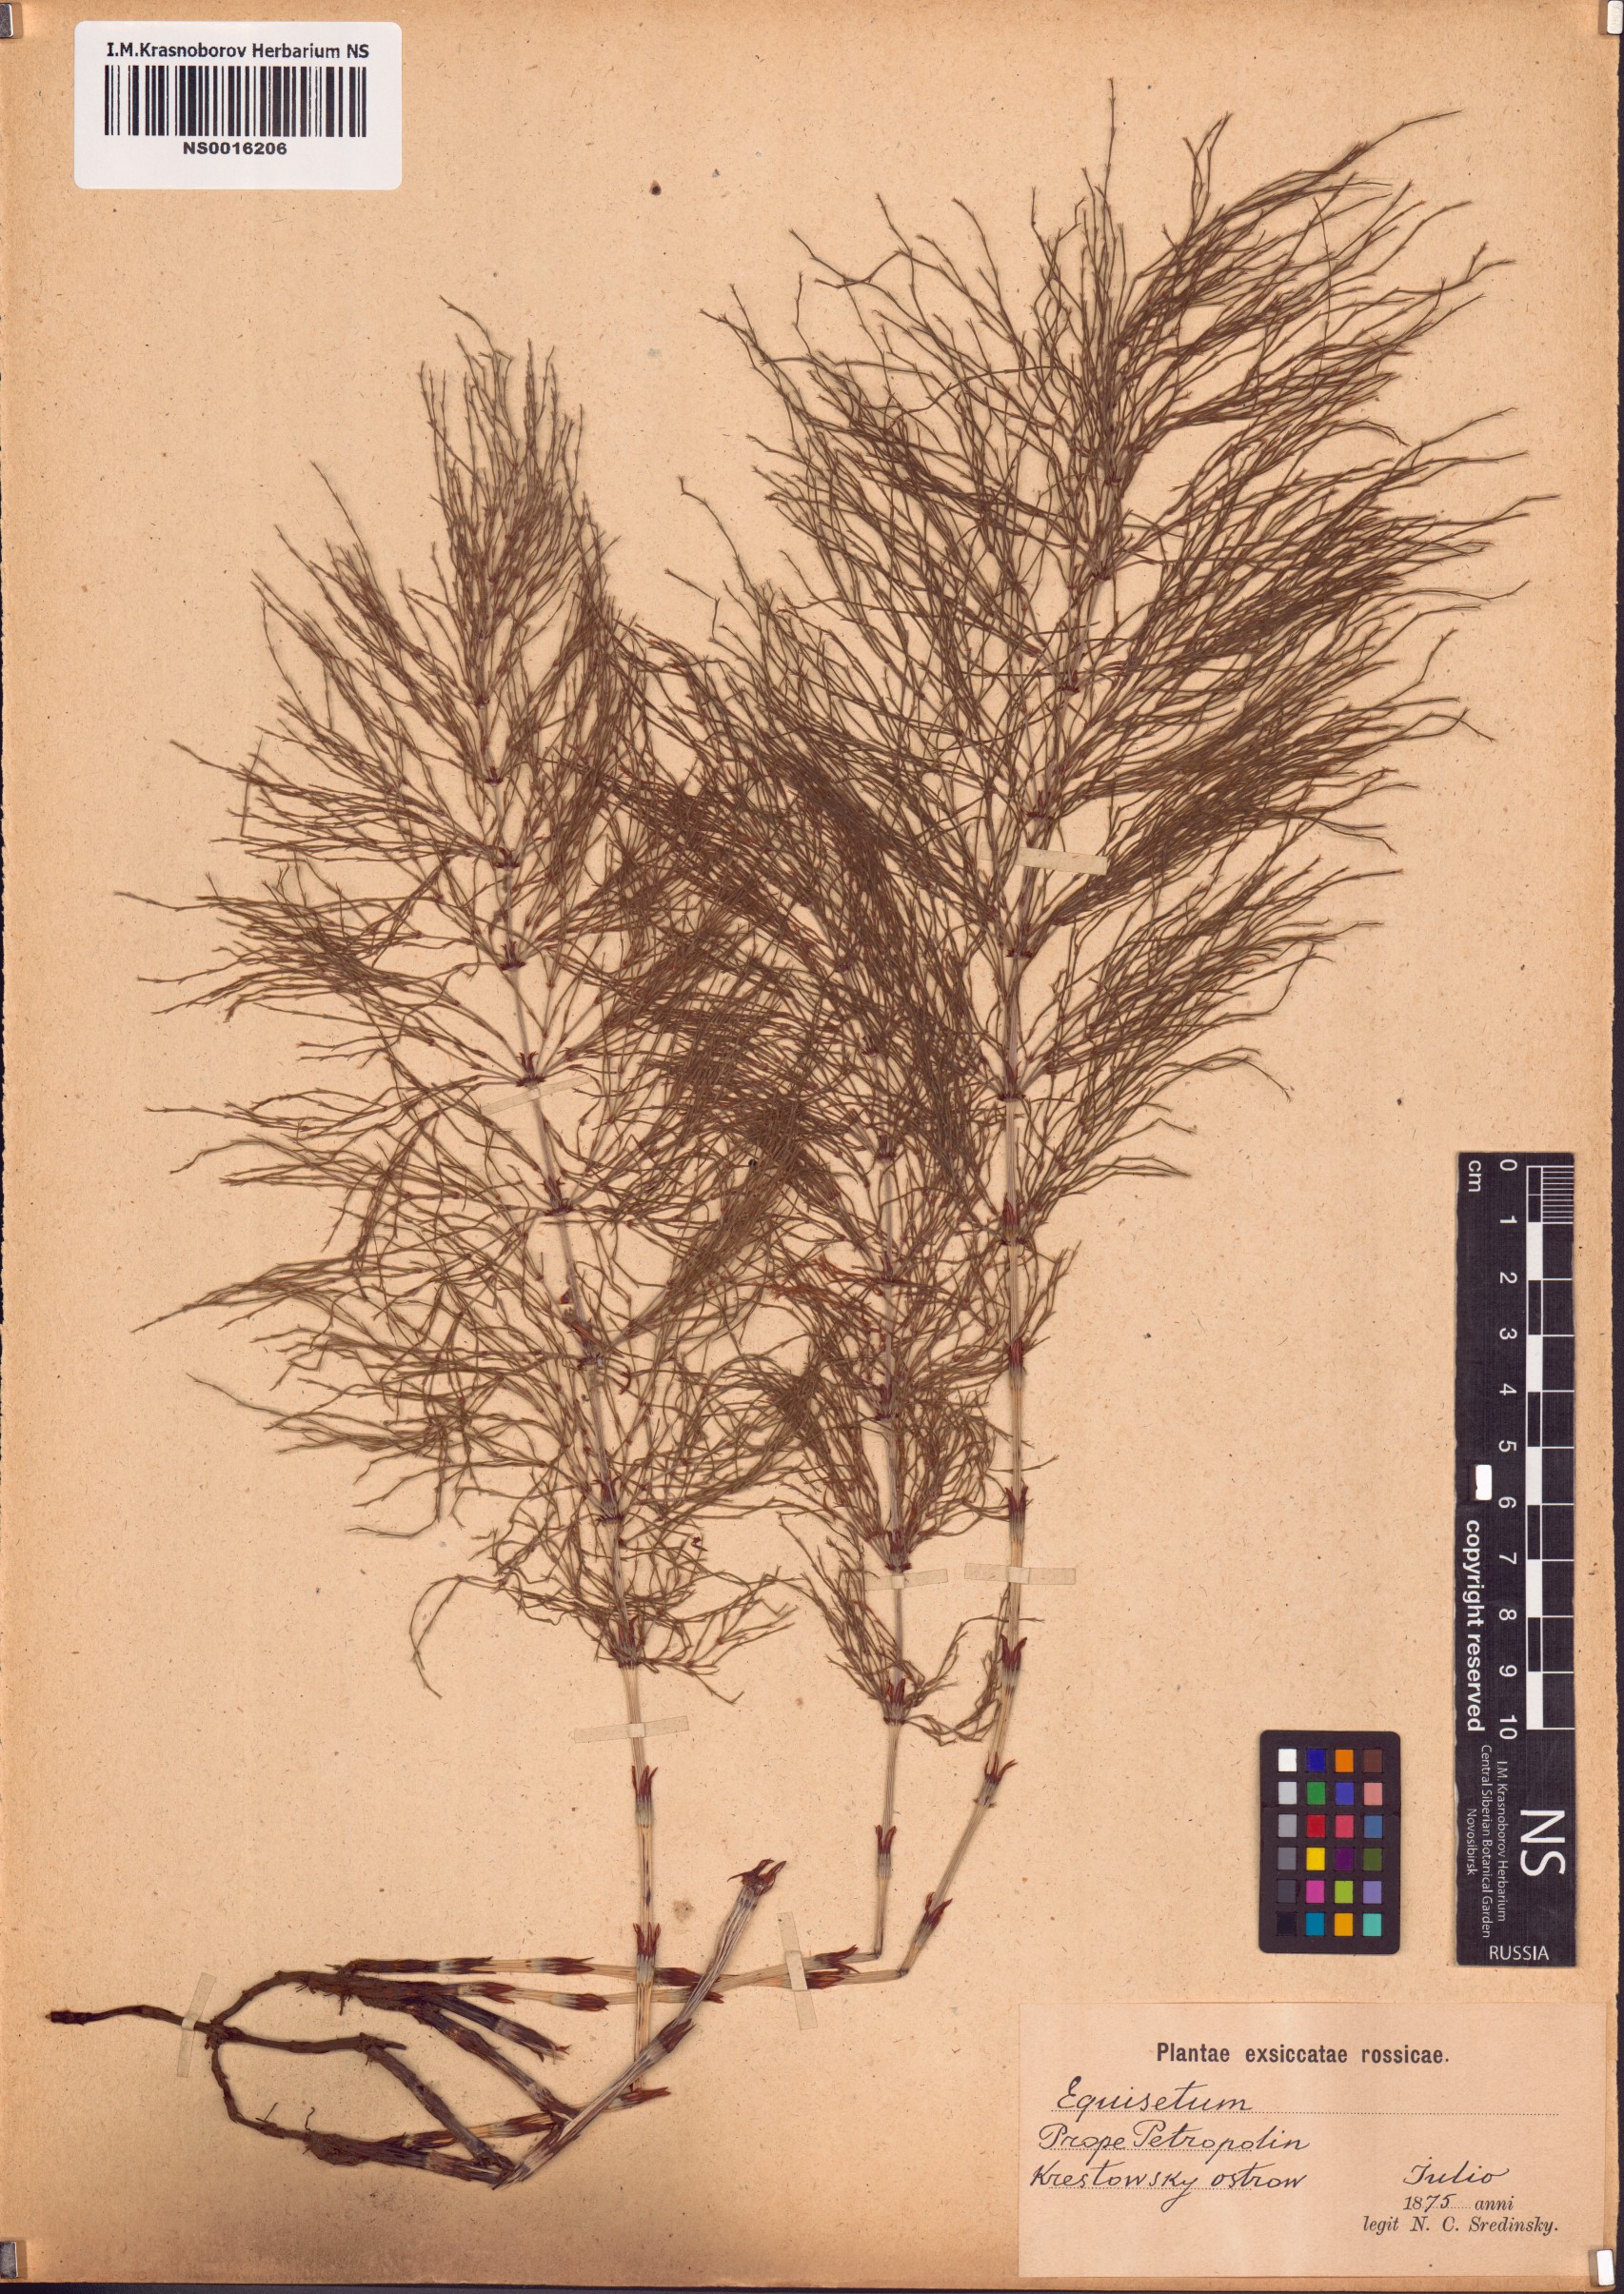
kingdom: Plantae
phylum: Tracheophyta
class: Polypodiopsida
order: Equisetales
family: Equisetaceae
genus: Equisetum
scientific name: Equisetum arvense
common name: Field horsetail
